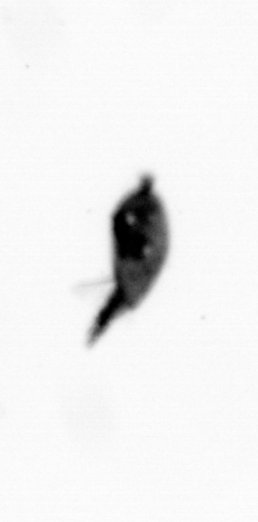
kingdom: Animalia
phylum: Arthropoda
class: Maxillopoda
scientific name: Maxillopoda
